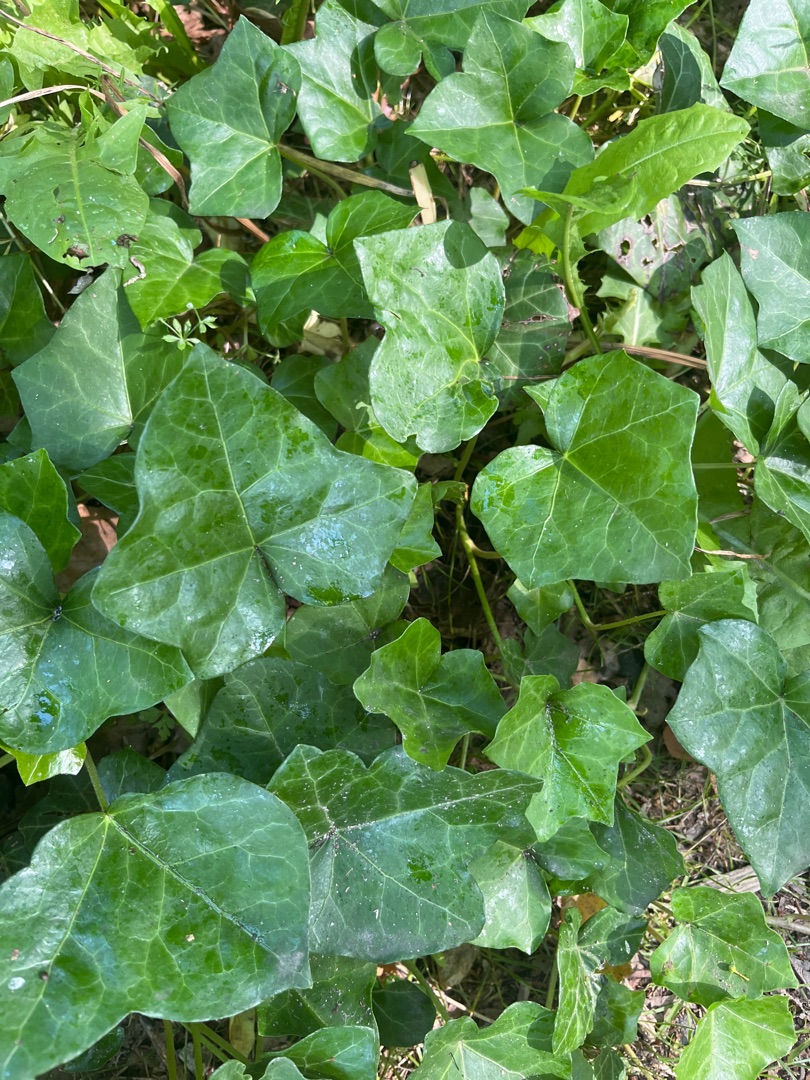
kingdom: Plantae
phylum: Tracheophyta
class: Magnoliopsida
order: Apiales
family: Araliaceae
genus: Hedera
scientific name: Hedera helix
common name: Vedbend
